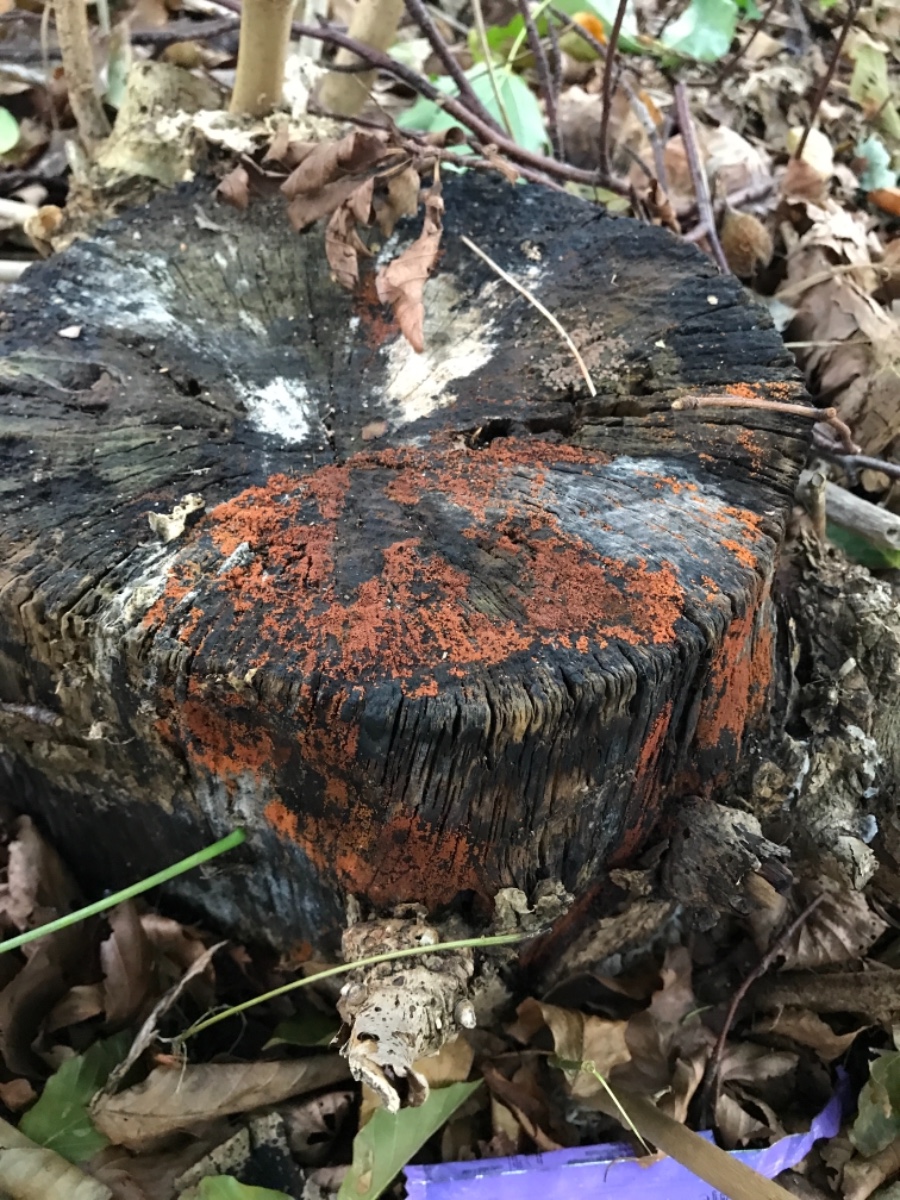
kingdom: Fungi
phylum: Ascomycota
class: Sordariomycetes
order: Hypocreales
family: Nectriaceae
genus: Hydropisphaera
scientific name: Hydropisphaera peziza
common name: skålformet gyldenkerne
